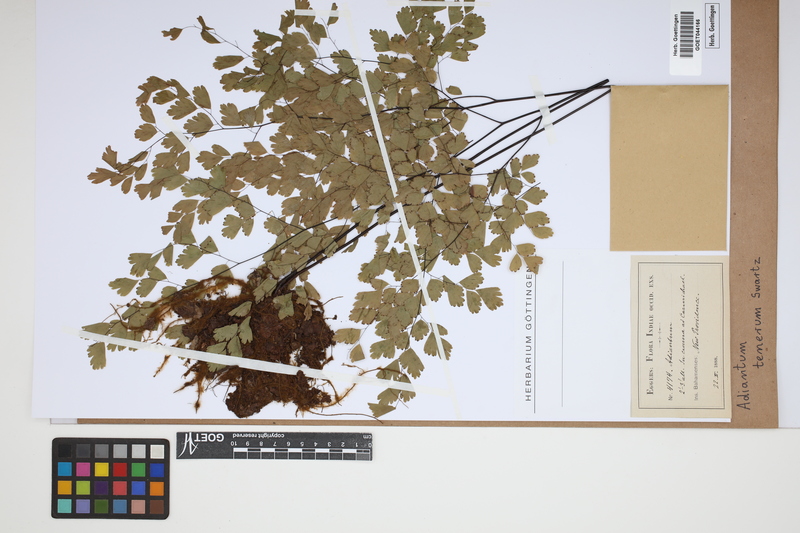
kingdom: Plantae
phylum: Tracheophyta
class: Polypodiopsida
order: Polypodiales
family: Pteridaceae
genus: Adiantum
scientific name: Adiantum tenerum
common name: Fan maidenhair
